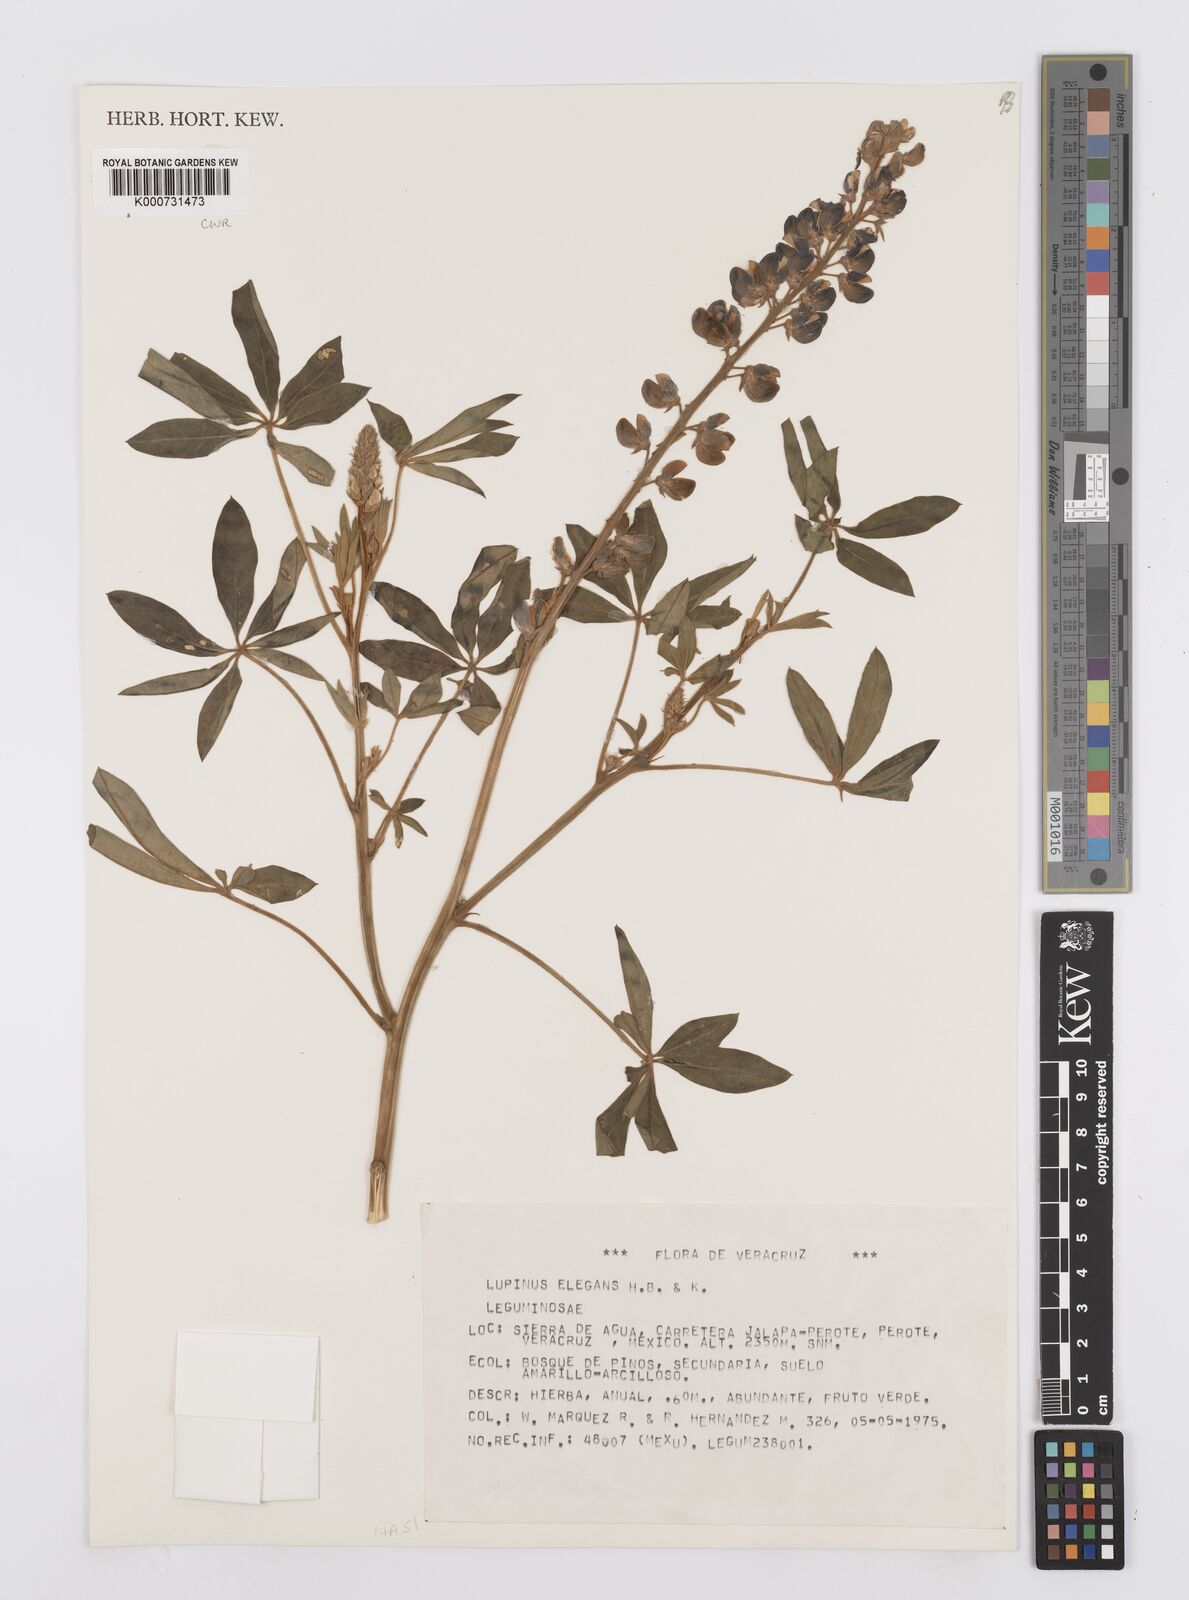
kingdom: Plantae
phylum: Tracheophyta
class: Magnoliopsida
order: Fabales
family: Fabaceae
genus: Lupinus
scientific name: Lupinus elegans
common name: Mexican lupine
